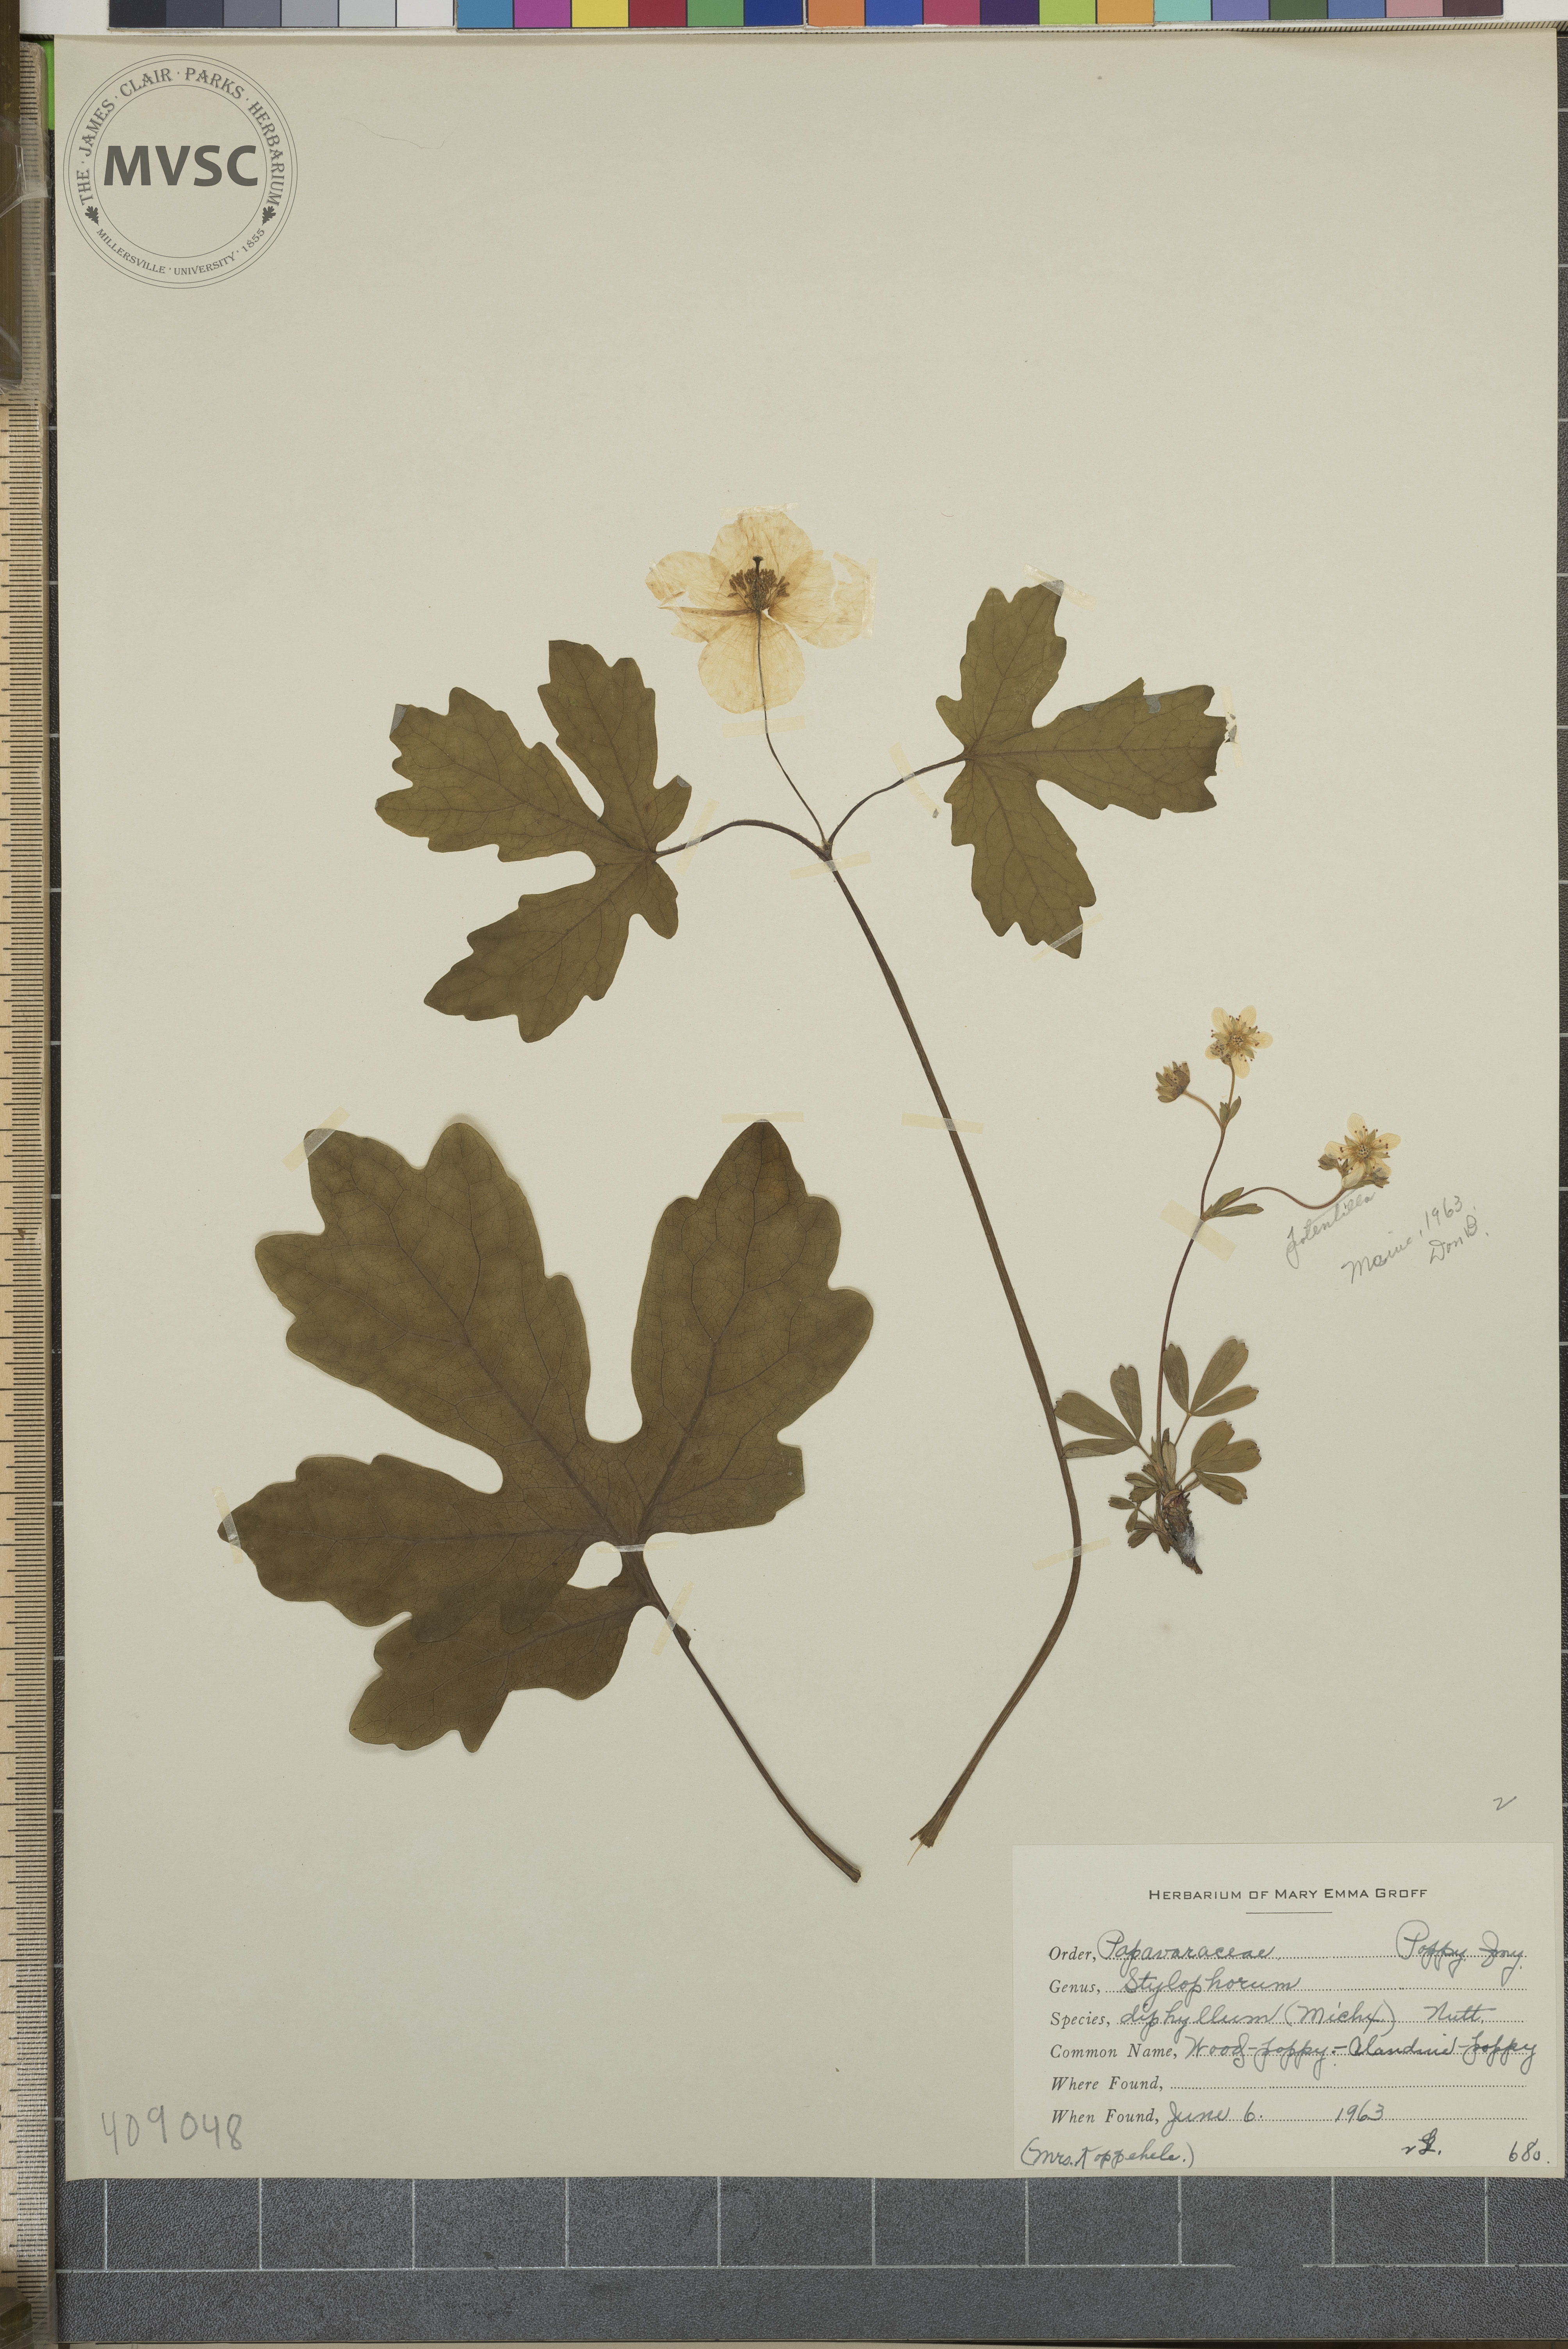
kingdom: Plantae
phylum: Tracheophyta
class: Magnoliopsida
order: Ranunculales
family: Papaveraceae
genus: Stylophorum
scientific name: Stylophorum diphyllum
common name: Wood-poppy
